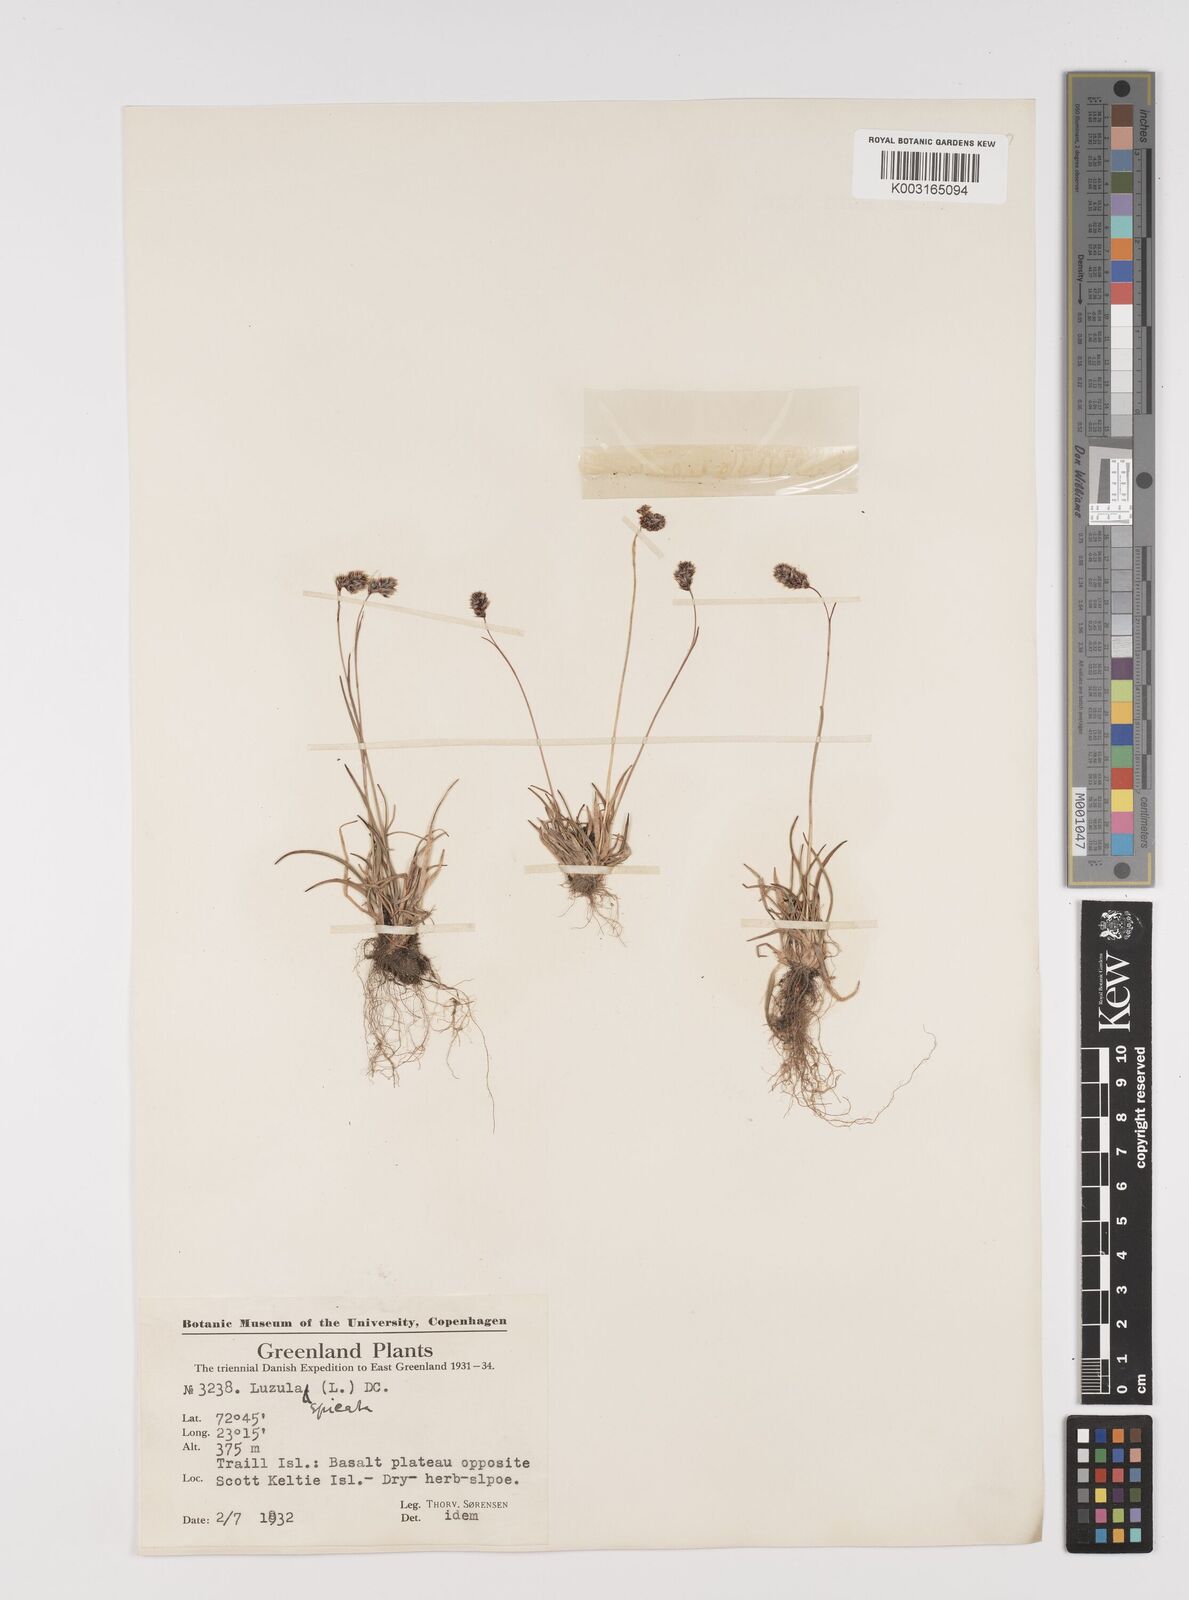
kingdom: Plantae
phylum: Tracheophyta
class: Liliopsida
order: Poales
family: Juncaceae
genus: Luzula
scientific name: Luzula spicata
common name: Spiked wood-rush
